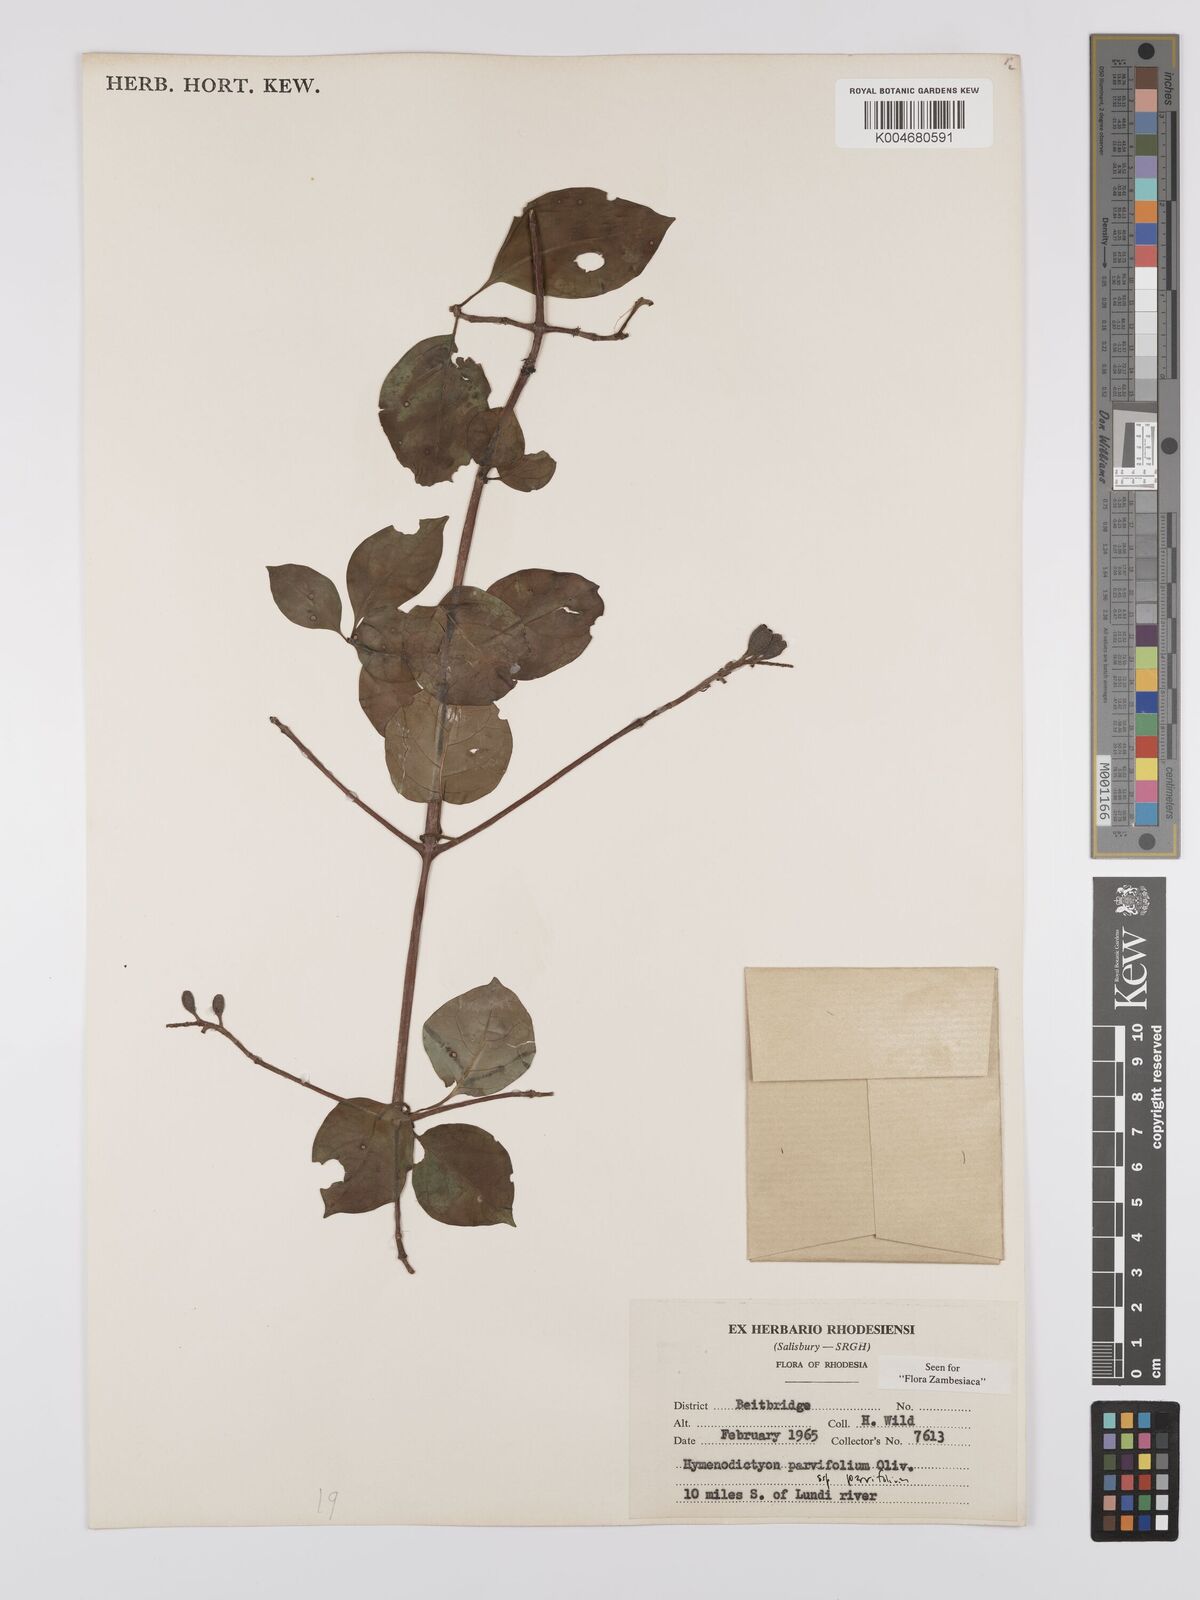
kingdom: Plantae
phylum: Tracheophyta
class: Magnoliopsida
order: Gentianales
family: Rubiaceae
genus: Hymenodictyon
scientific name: Hymenodictyon parvifolium
